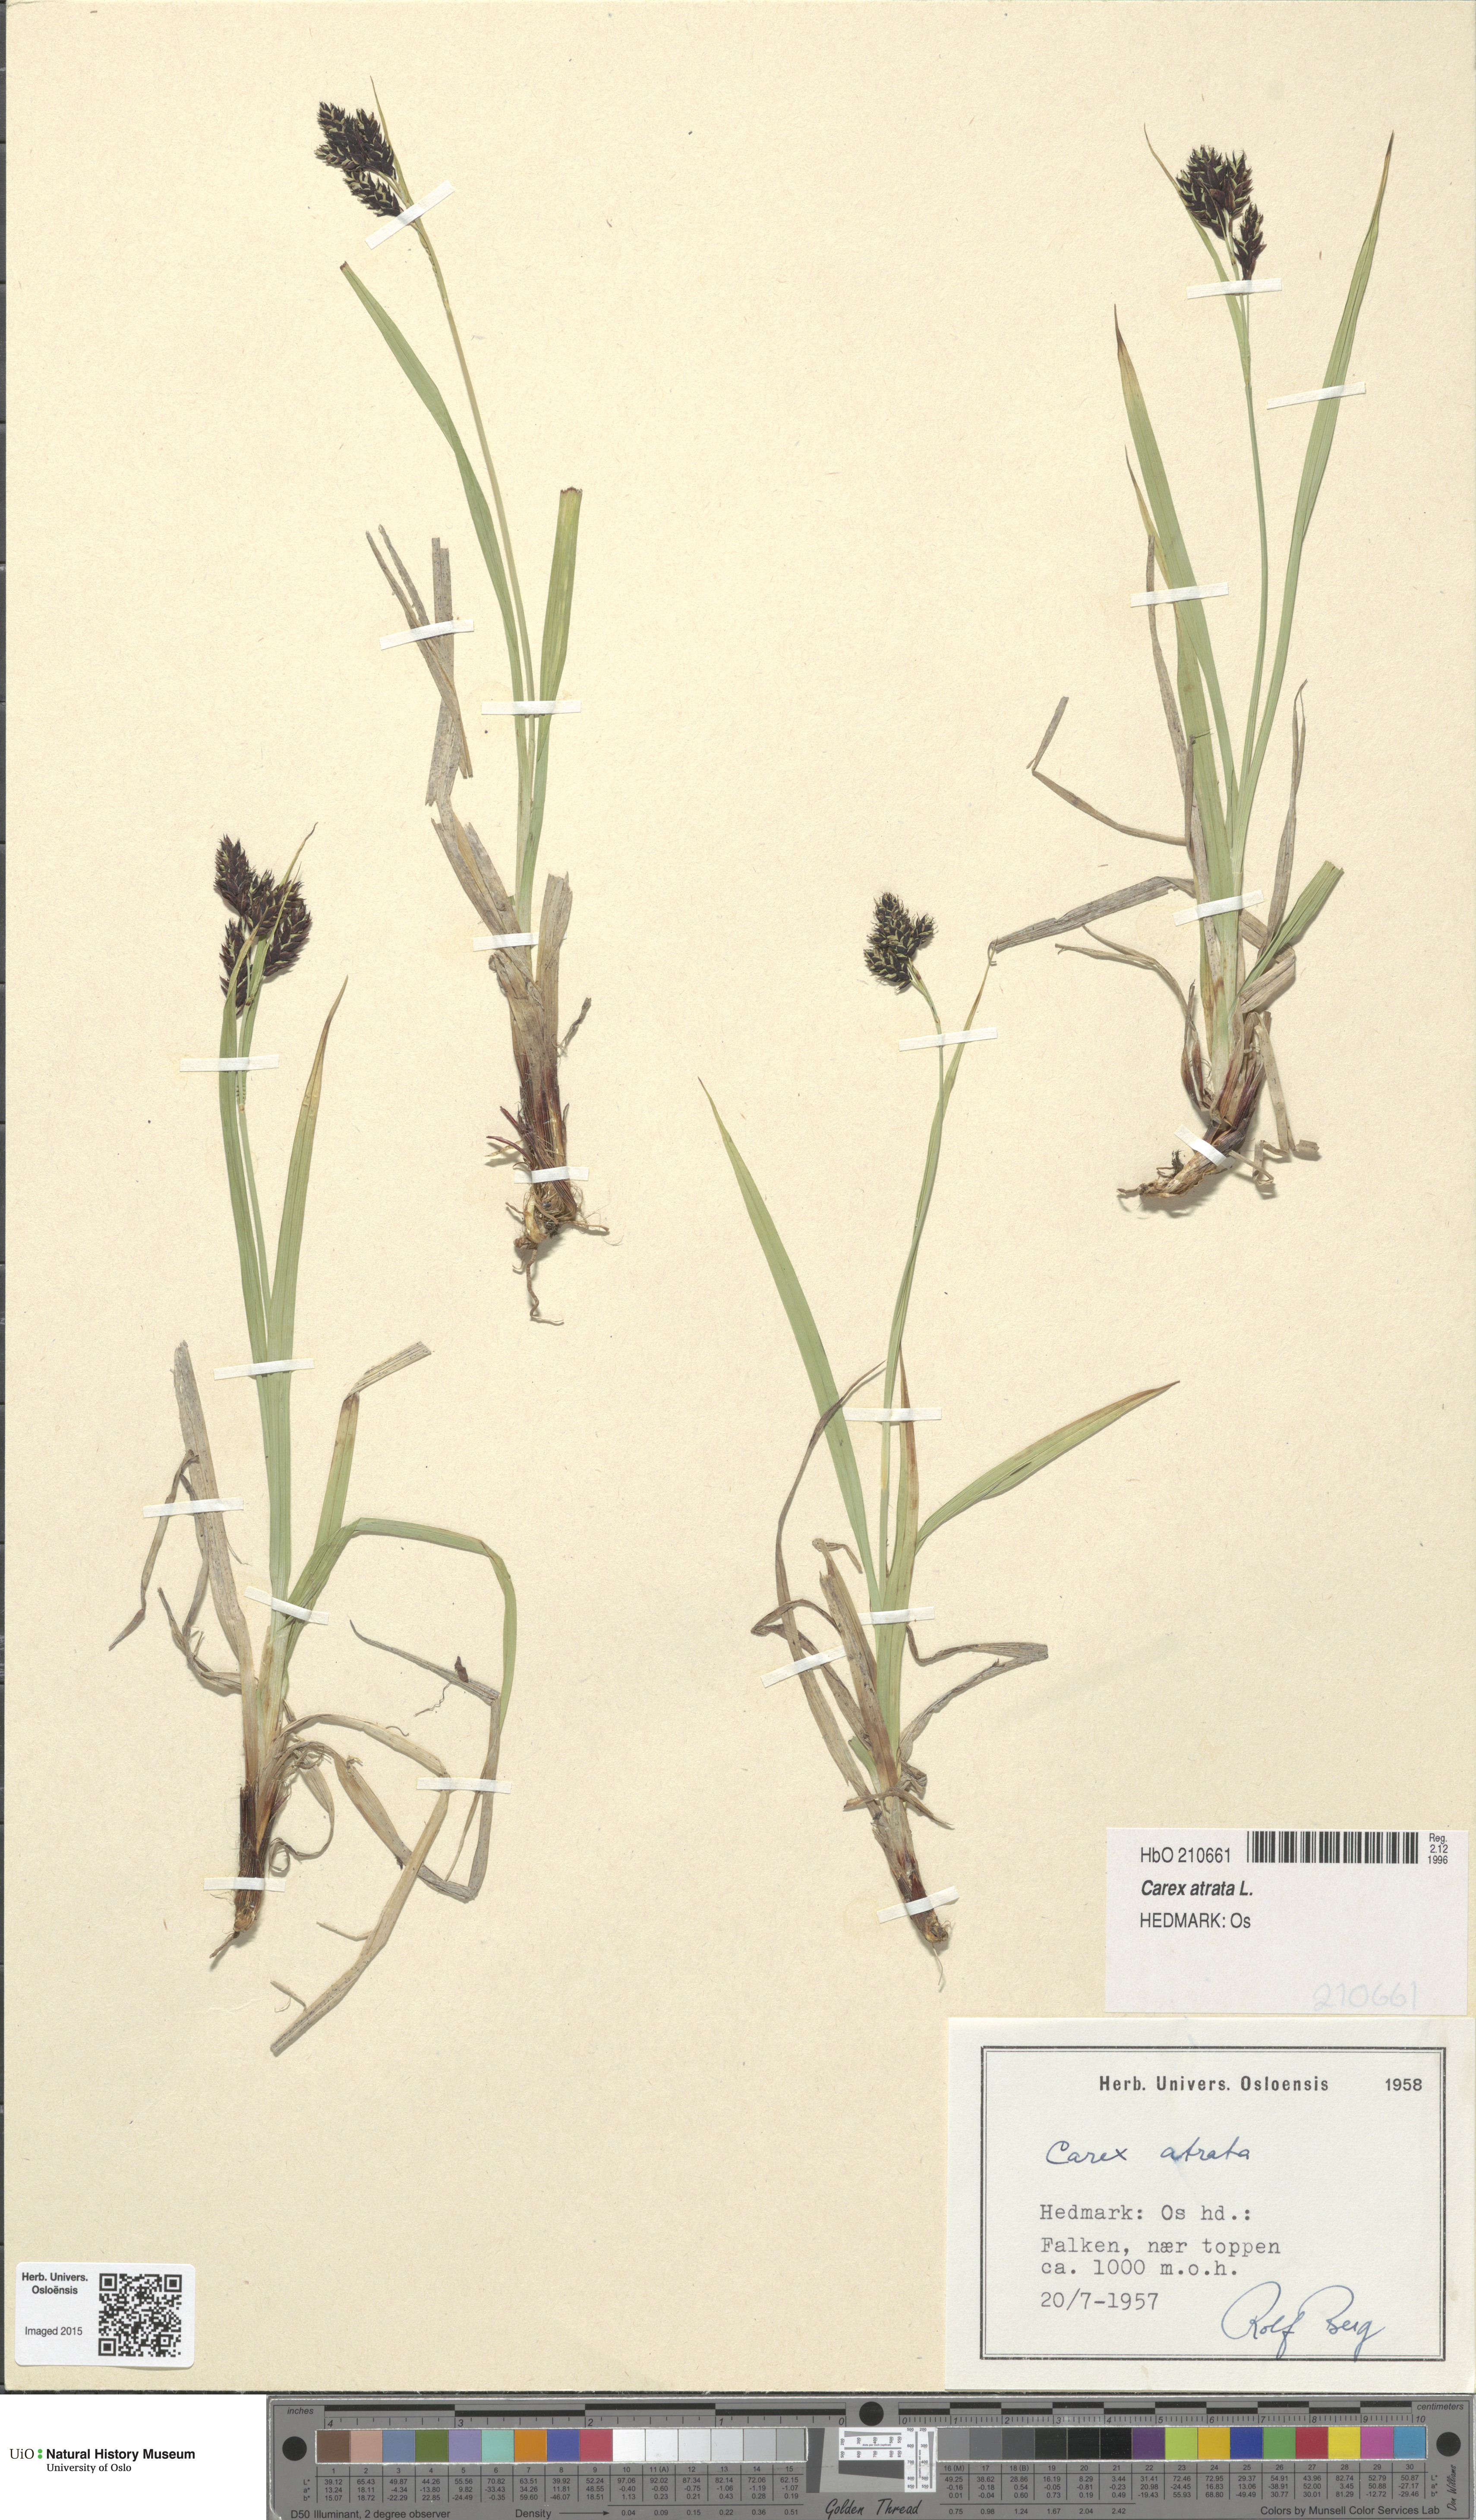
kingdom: Plantae
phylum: Tracheophyta
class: Liliopsida
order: Poales
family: Cyperaceae
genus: Carex
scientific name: Carex atrata
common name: Black alpine sedge
